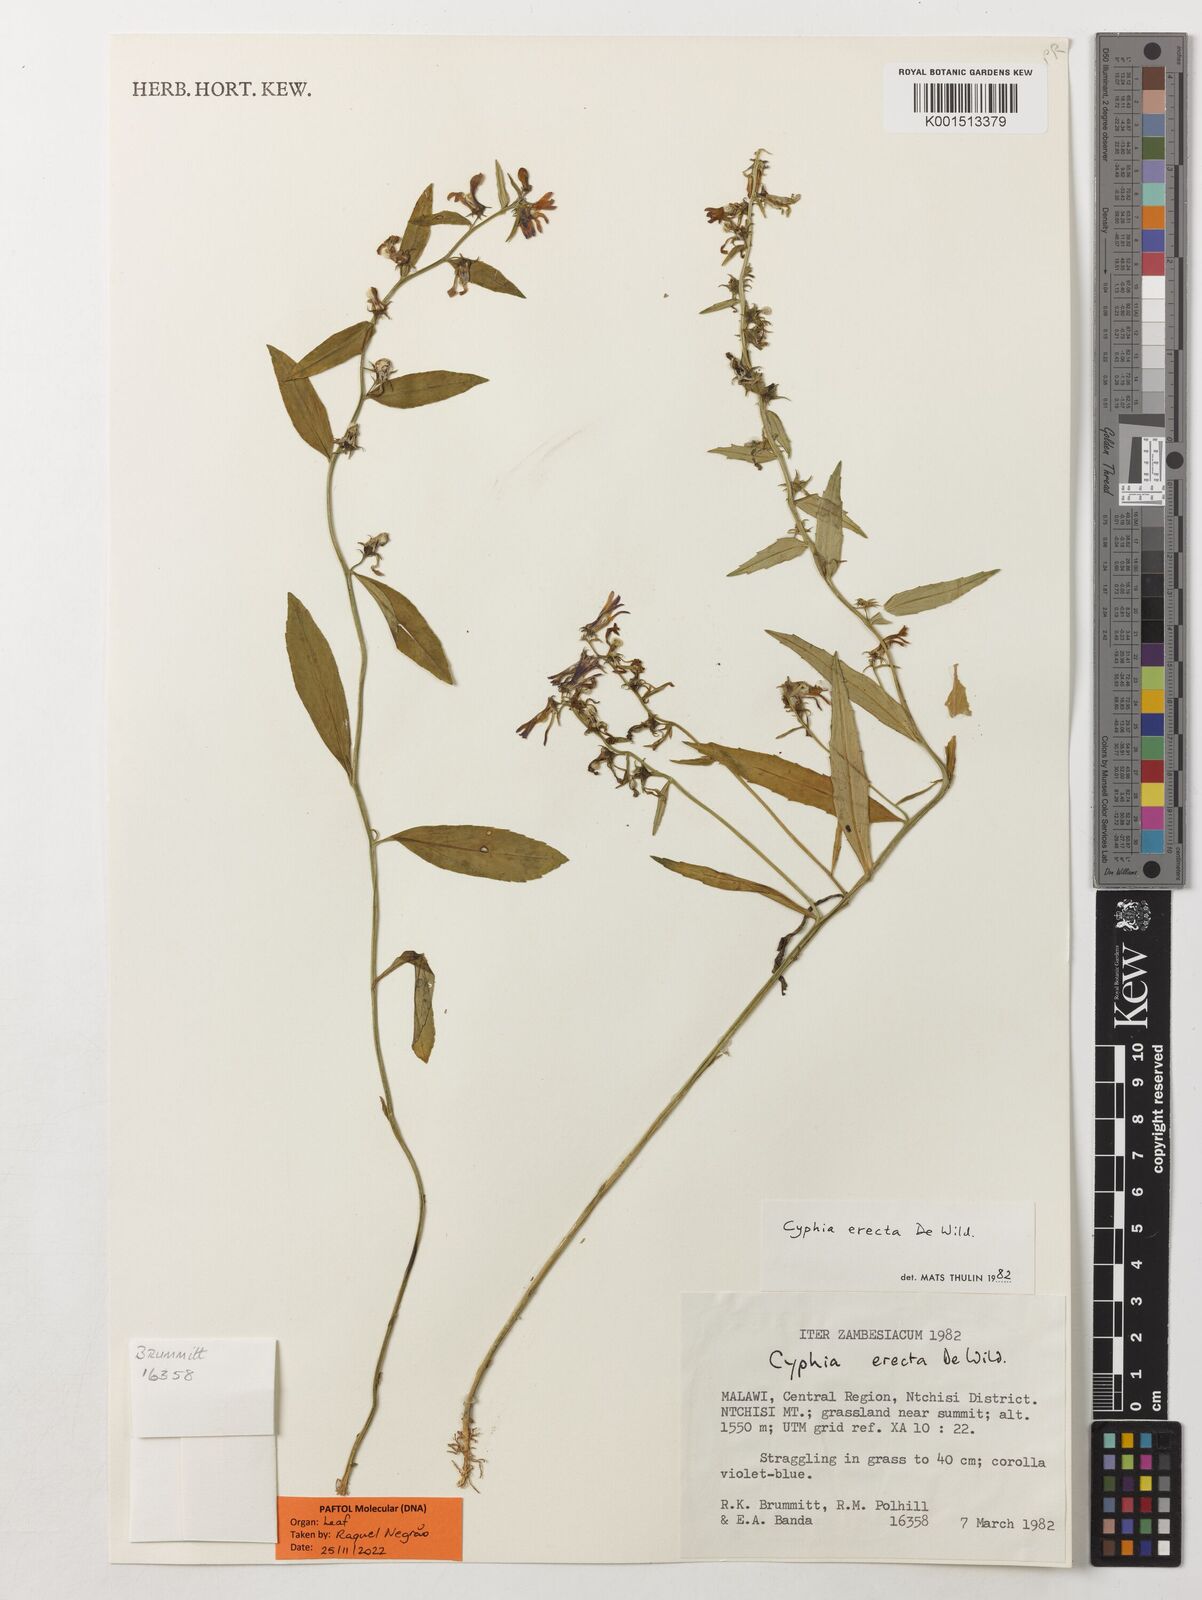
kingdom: Plantae
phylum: Tracheophyta
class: Magnoliopsida
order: Asterales
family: Campanulaceae
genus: Cyphia
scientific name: Cyphia erecta
